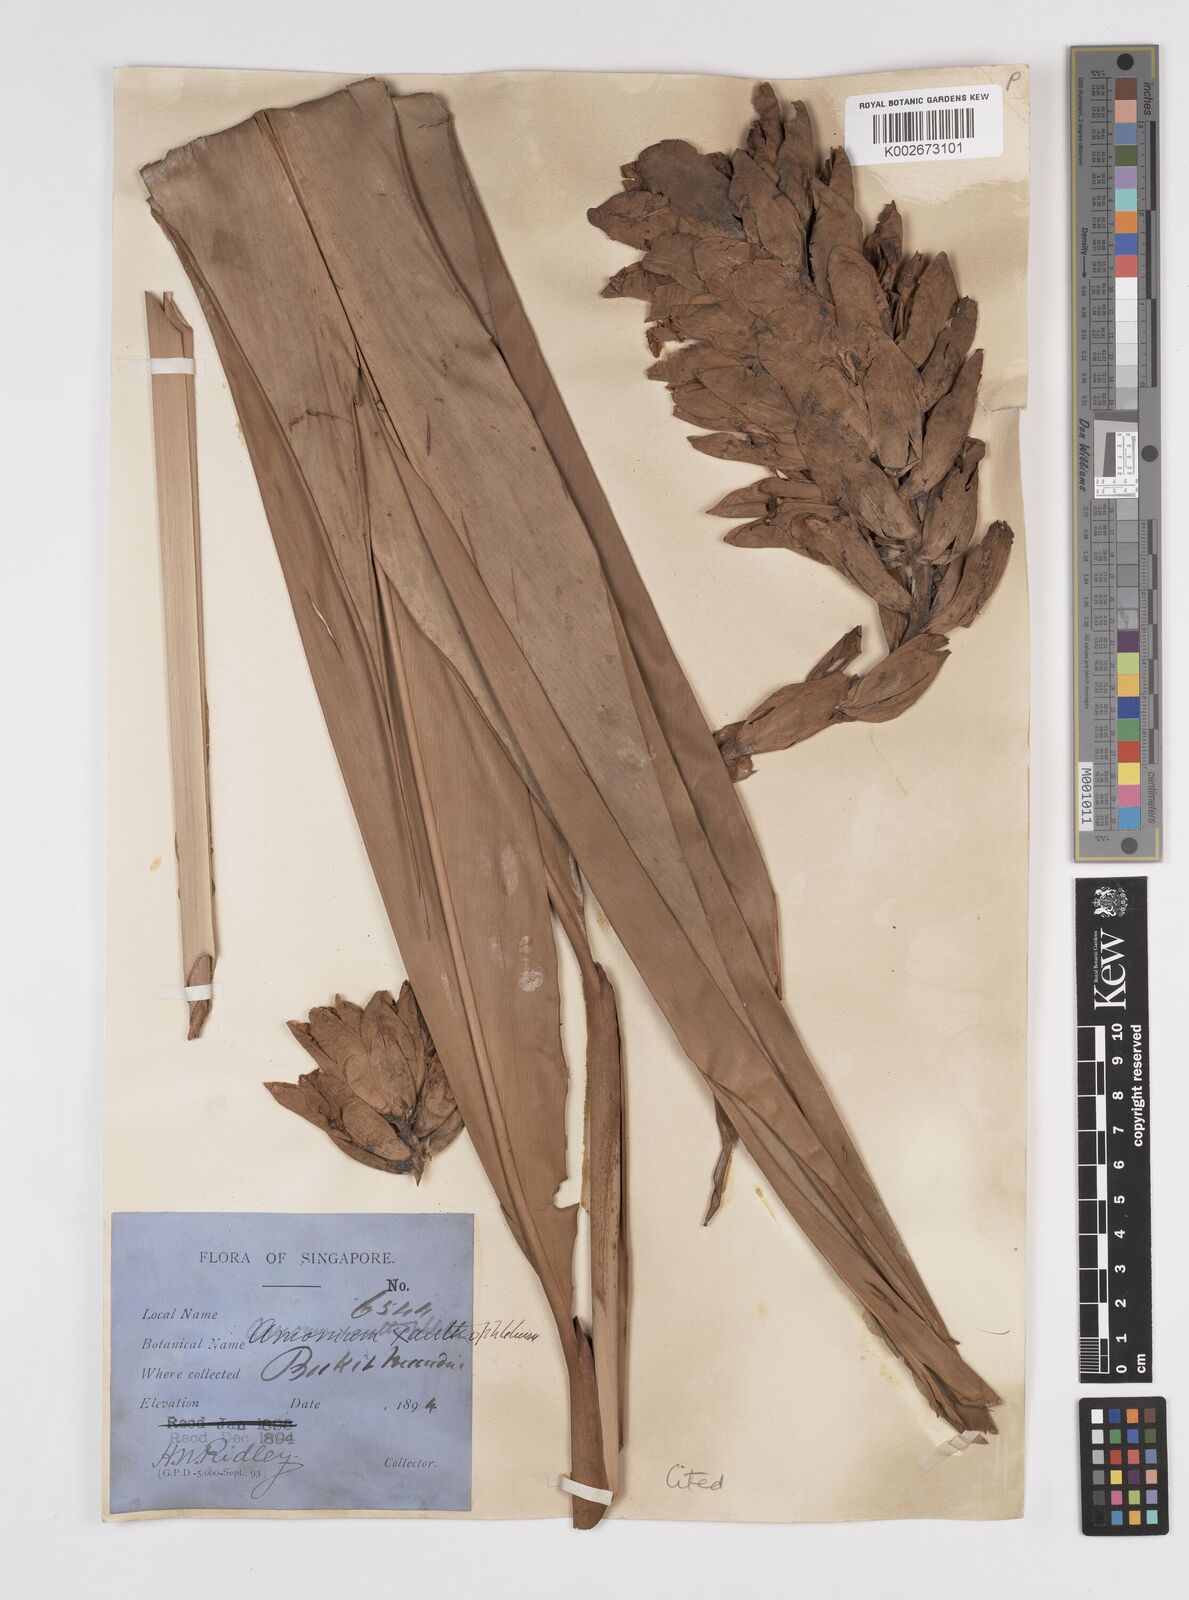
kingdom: Plantae
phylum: Tracheophyta
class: Liliopsida
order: Zingiberales
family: Zingiberaceae
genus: Conamomum
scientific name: Conamomum xanthophlebium
